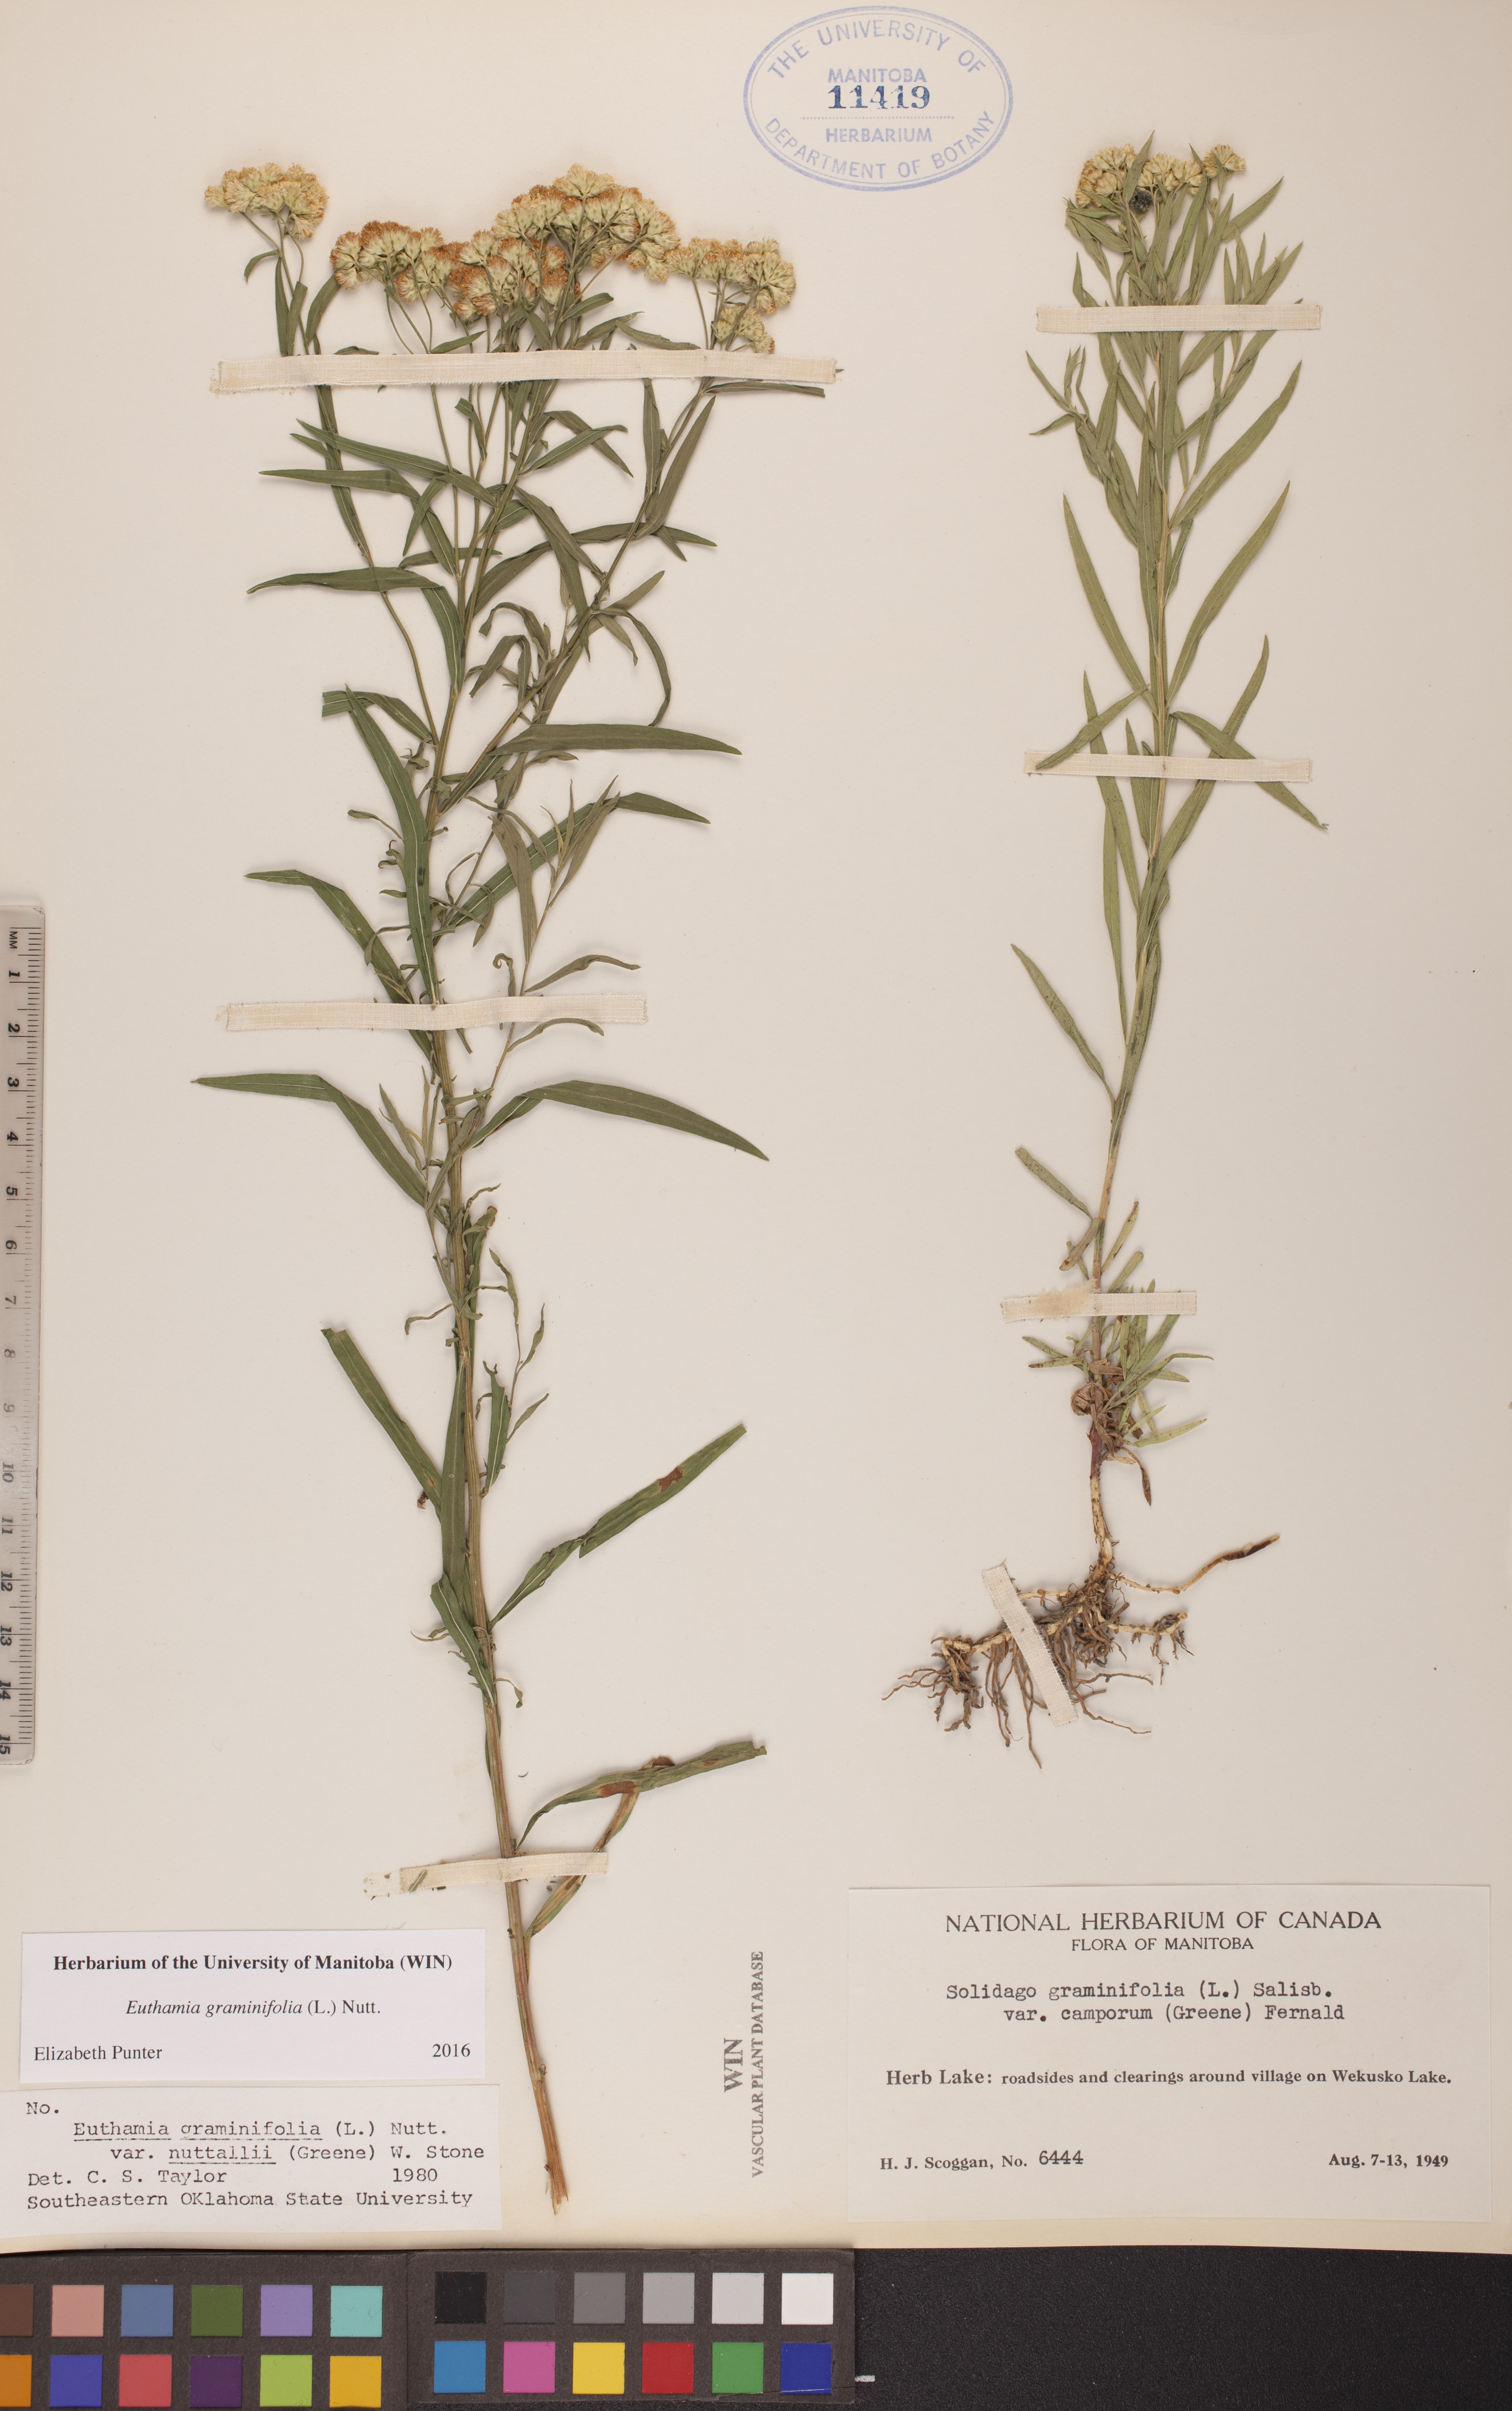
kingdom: Plantae
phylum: Tracheophyta
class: Magnoliopsida
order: Asterales
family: Asteraceae
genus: Euthamia
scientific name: Euthamia graminifolia
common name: Common goldentop
